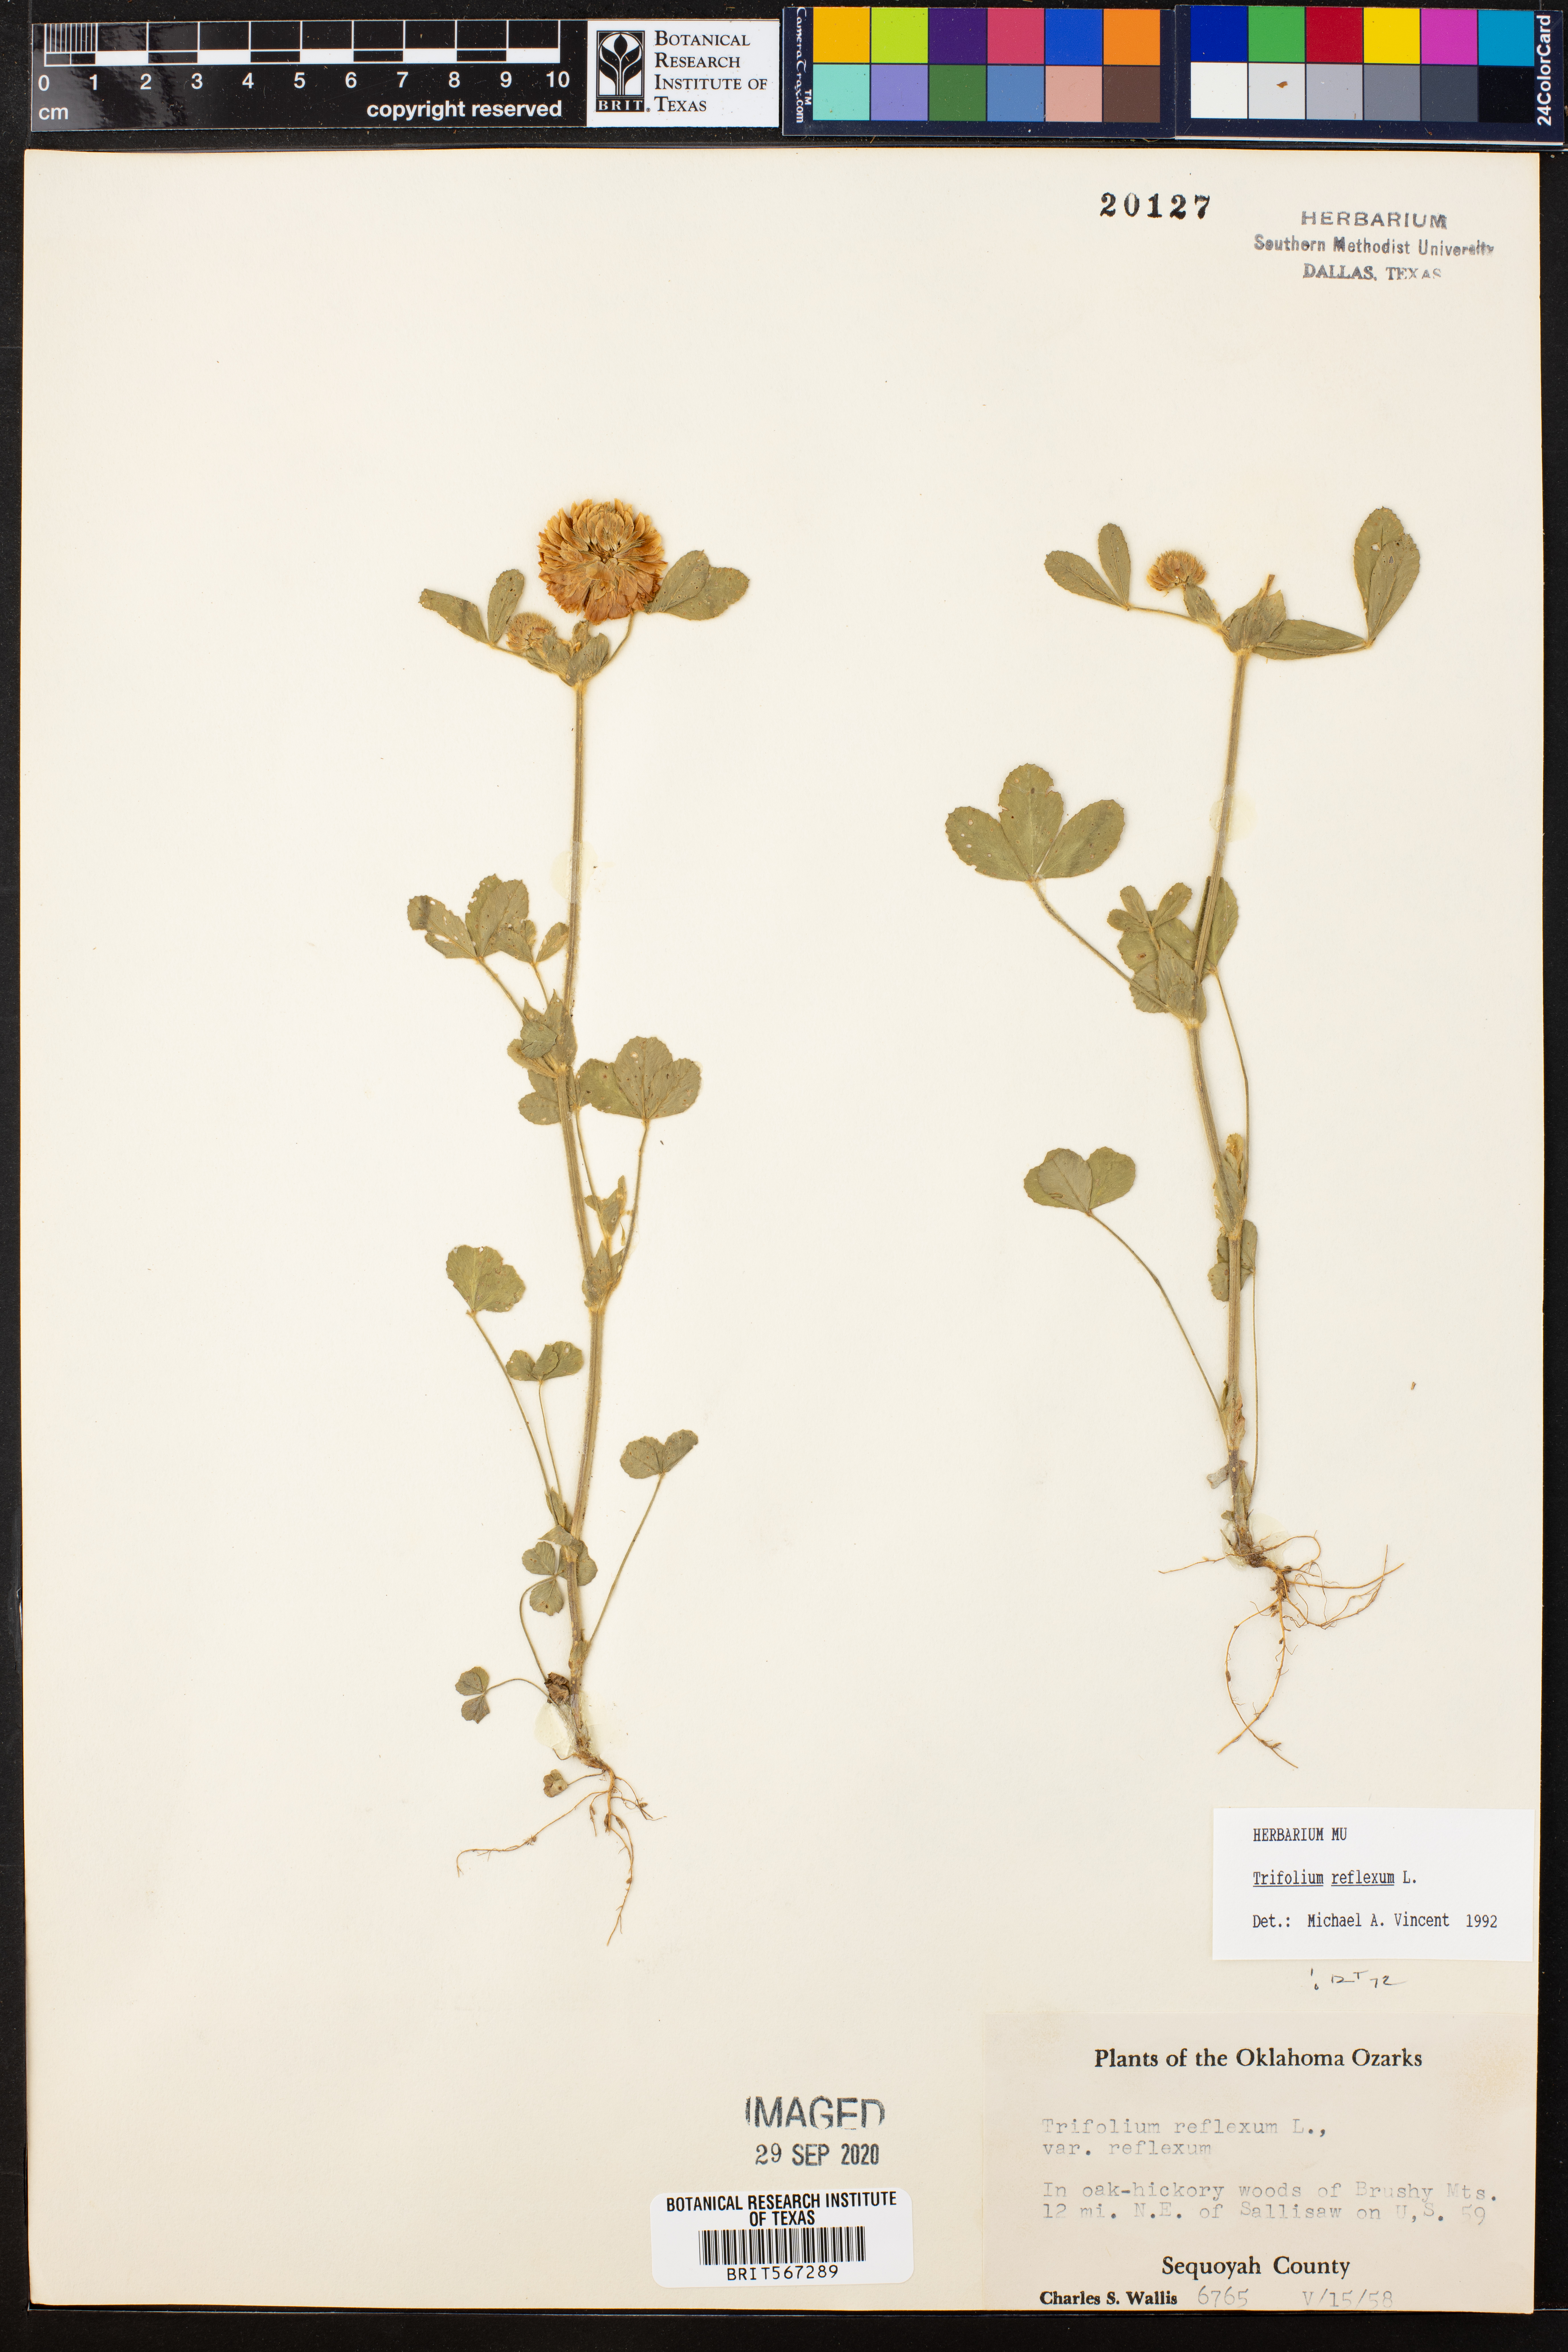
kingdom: Plantae
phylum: Tracheophyta
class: Magnoliopsida
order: Fabales
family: Fabaceae
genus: Trifolium
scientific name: Trifolium reflexum
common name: Buffalo clover
